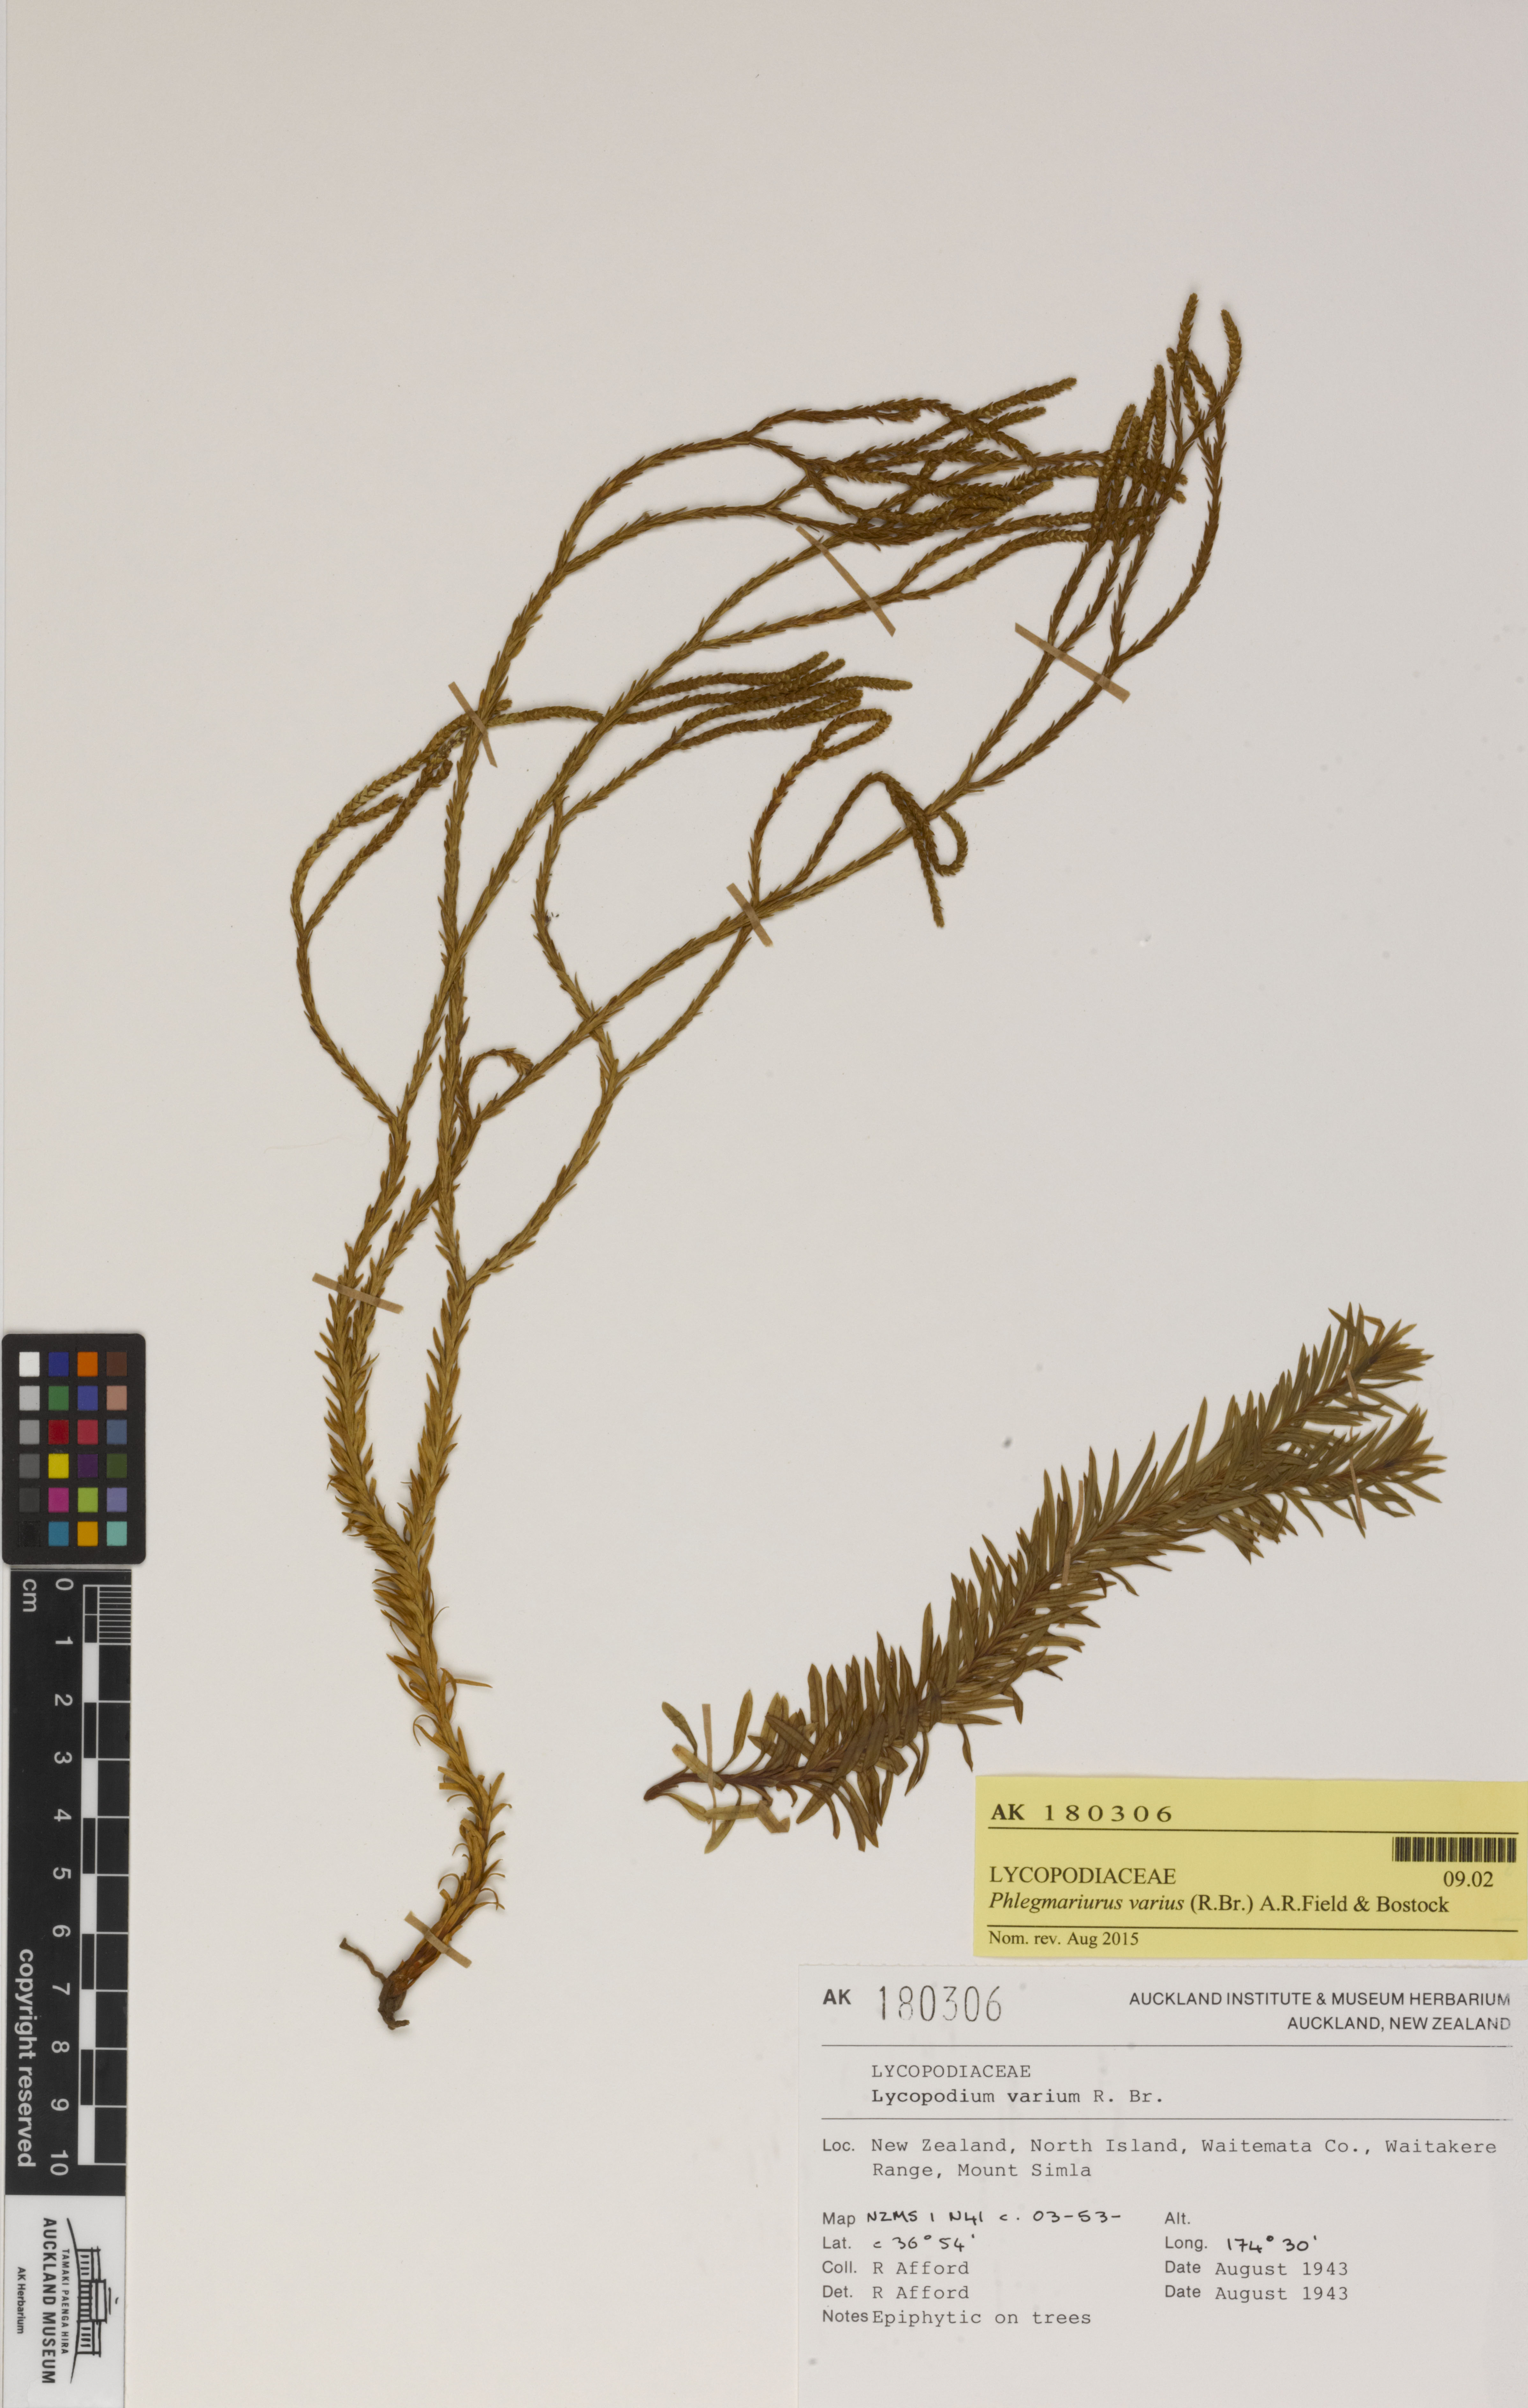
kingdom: Plantae
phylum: Tracheophyta
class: Lycopodiopsida
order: Lycopodiales
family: Lycopodiaceae
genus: Phlegmariurus
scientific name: Phlegmariurus billardierei
